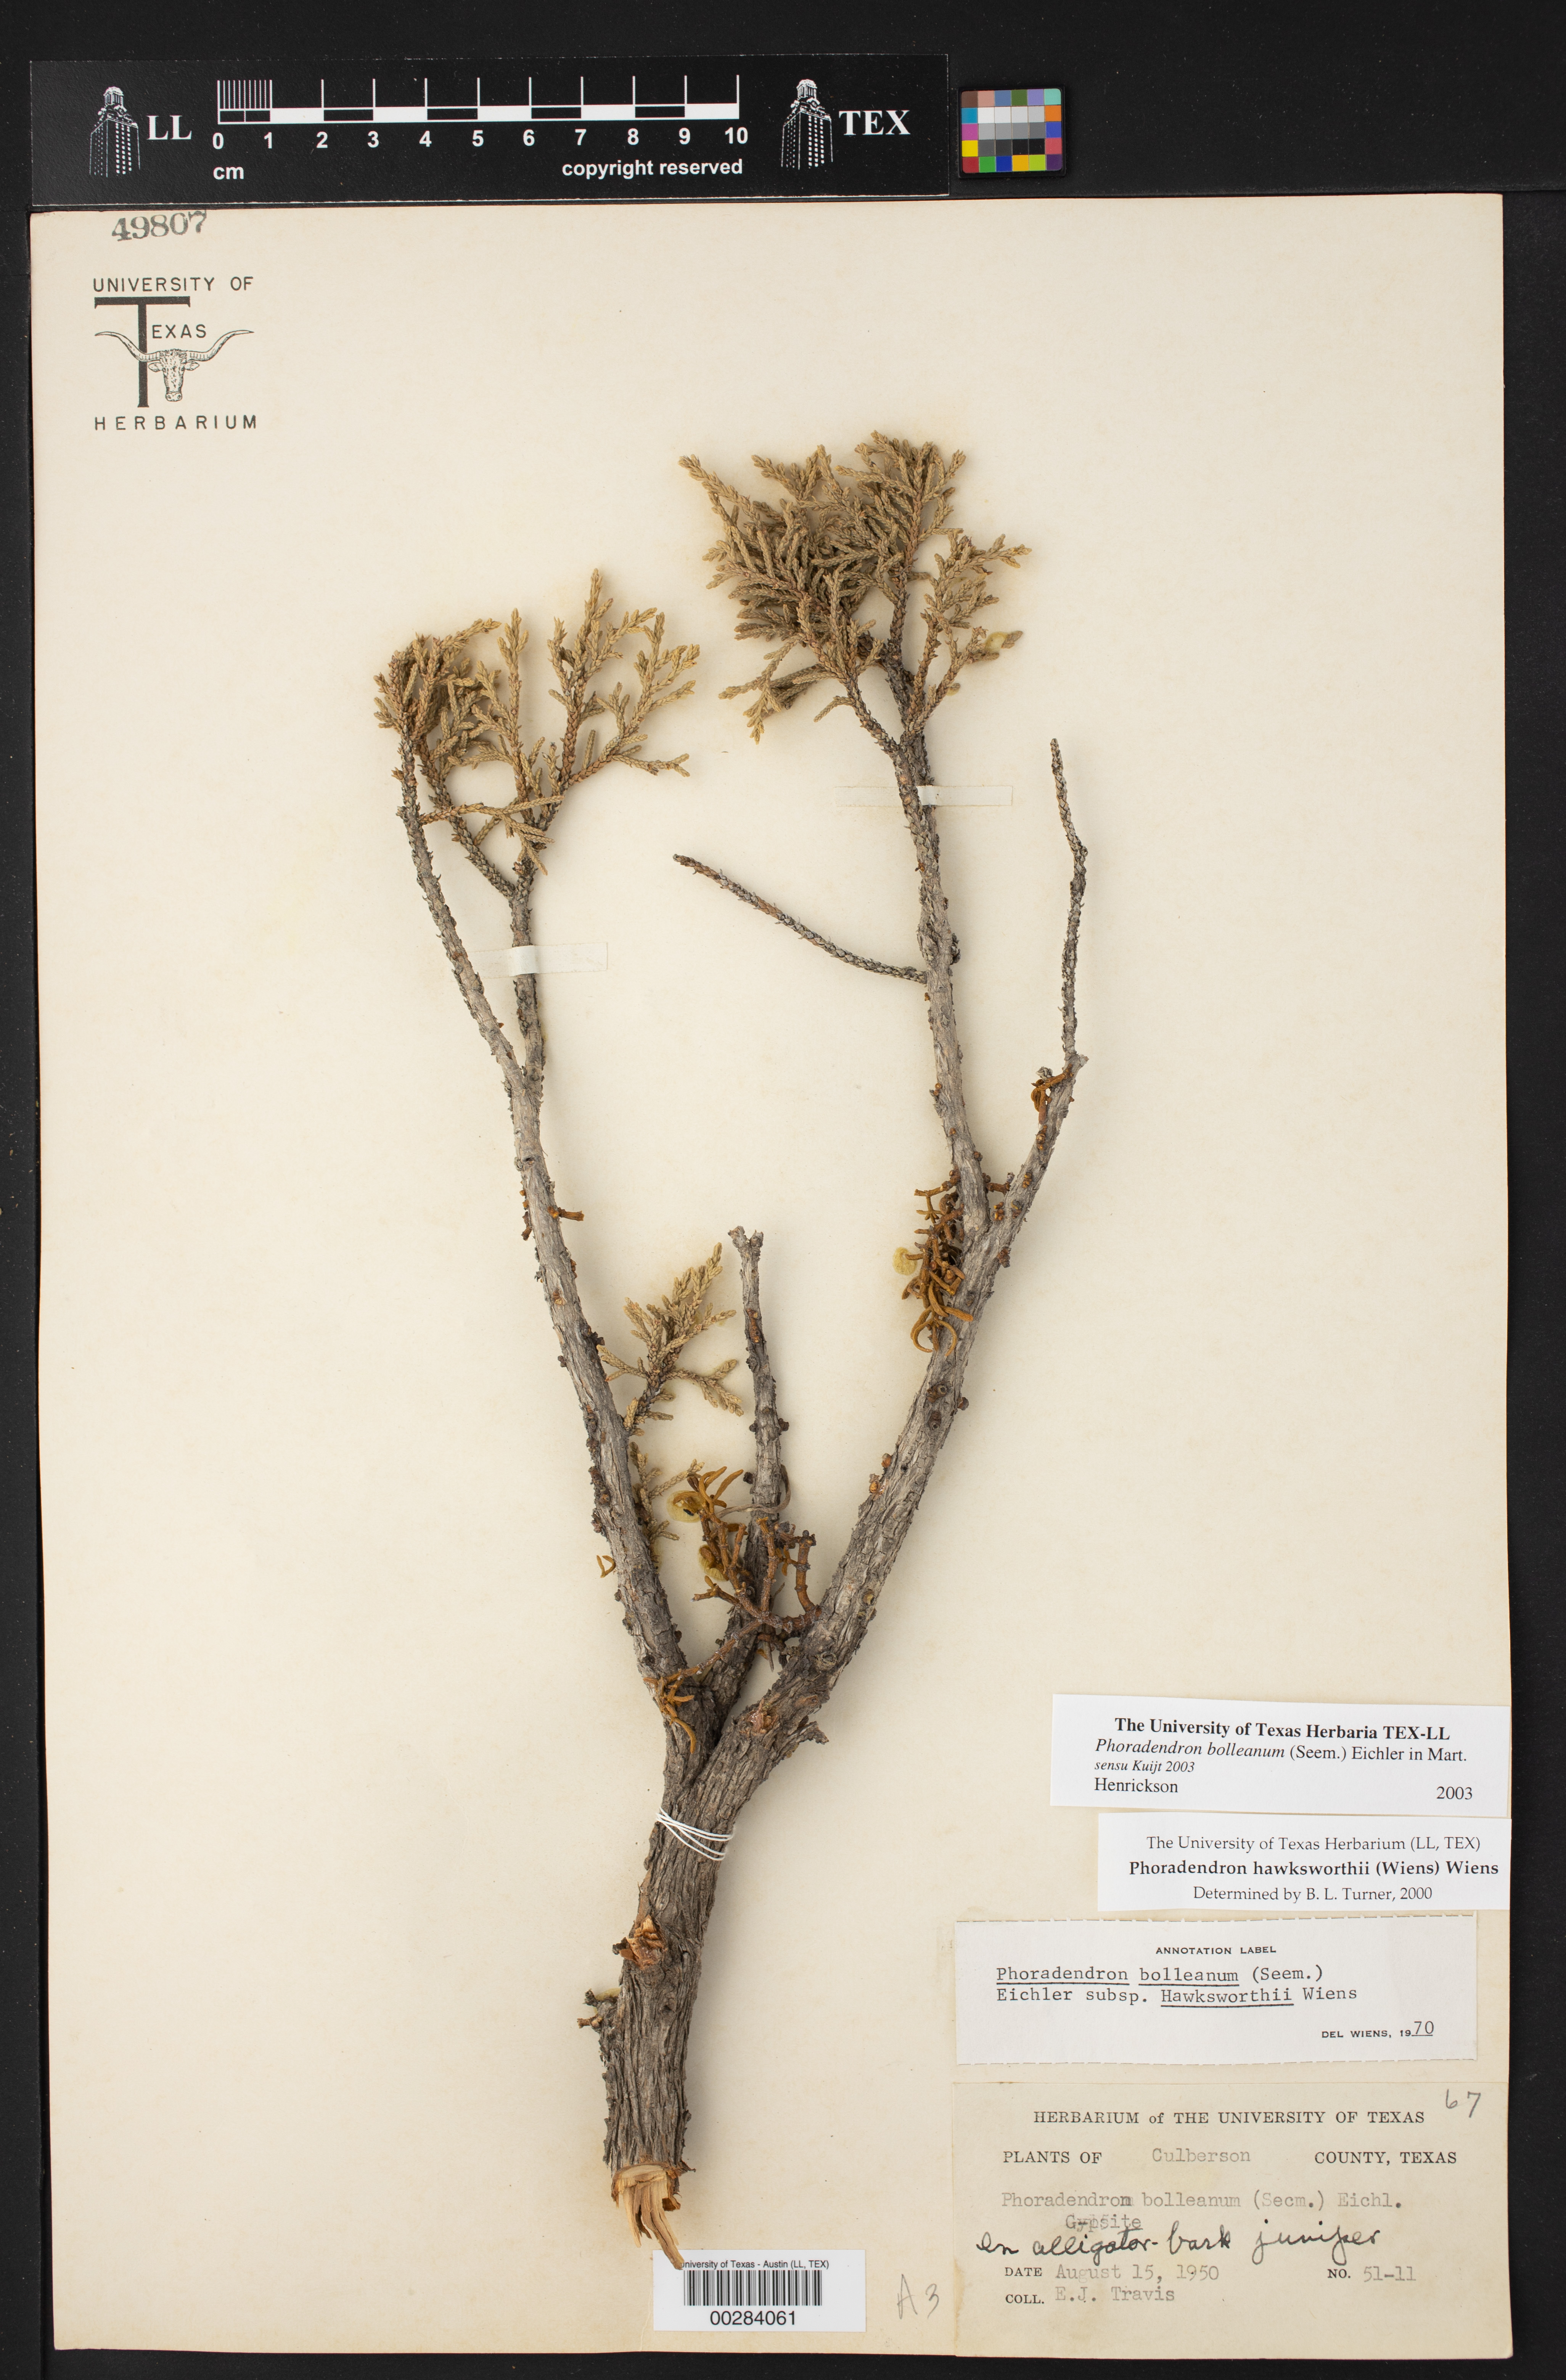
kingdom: Plantae
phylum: Tracheophyta
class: Magnoliopsida
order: Santalales
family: Viscaceae
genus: Phoradendron
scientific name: Phoradendron bolleanum
